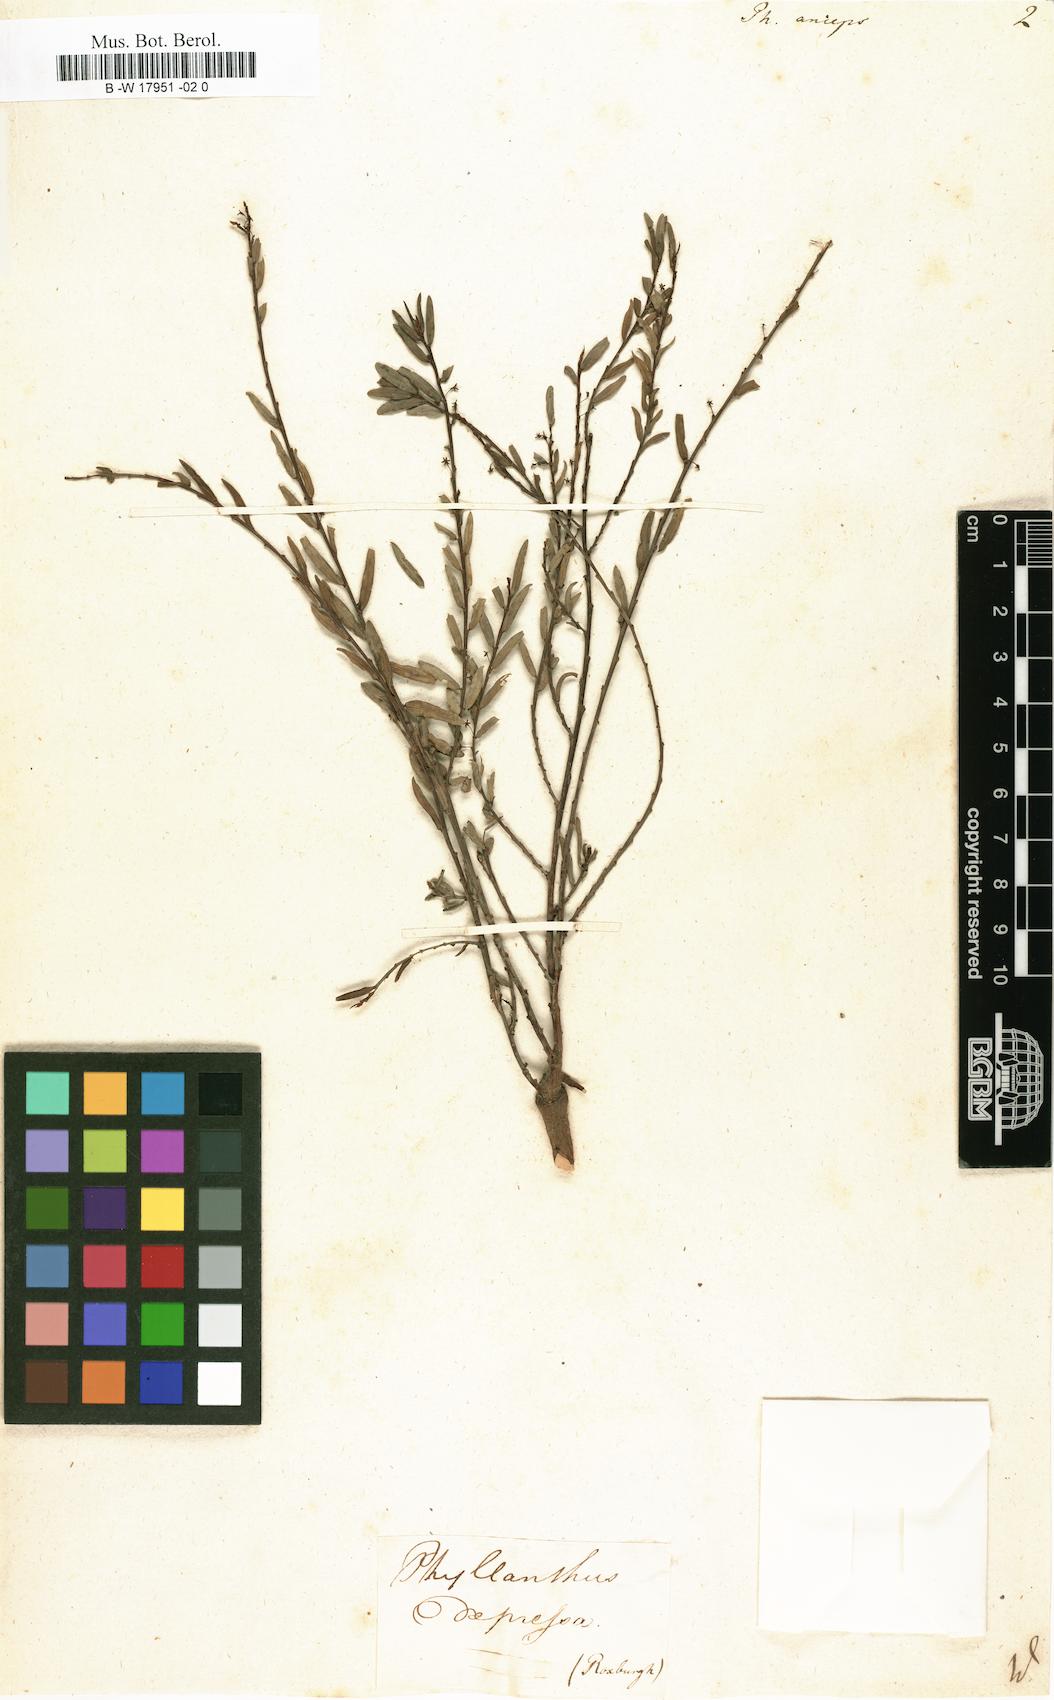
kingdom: Plantae
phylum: Tracheophyta
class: Magnoliopsida
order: Malpighiales
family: Phyllanthaceae
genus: Phyllanthus
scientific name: Phyllanthus anceps
